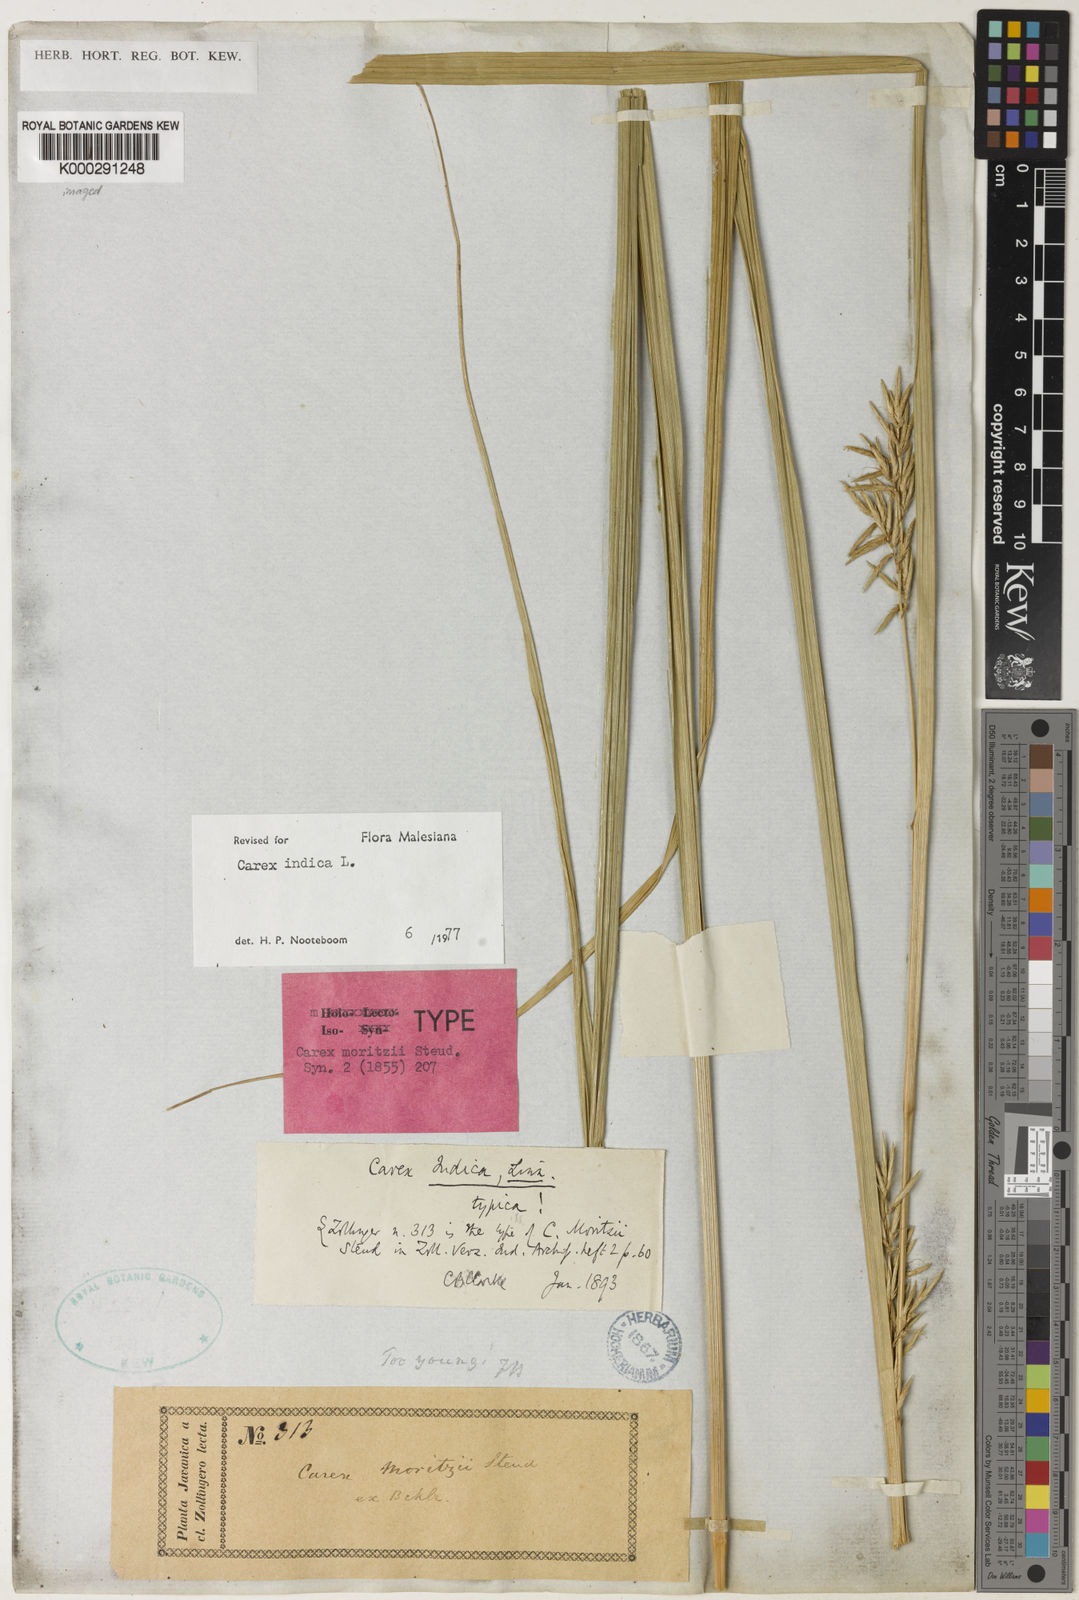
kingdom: Plantae
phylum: Tracheophyta
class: Liliopsida
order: Poales
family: Cyperaceae
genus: Carex
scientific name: Carex indica
